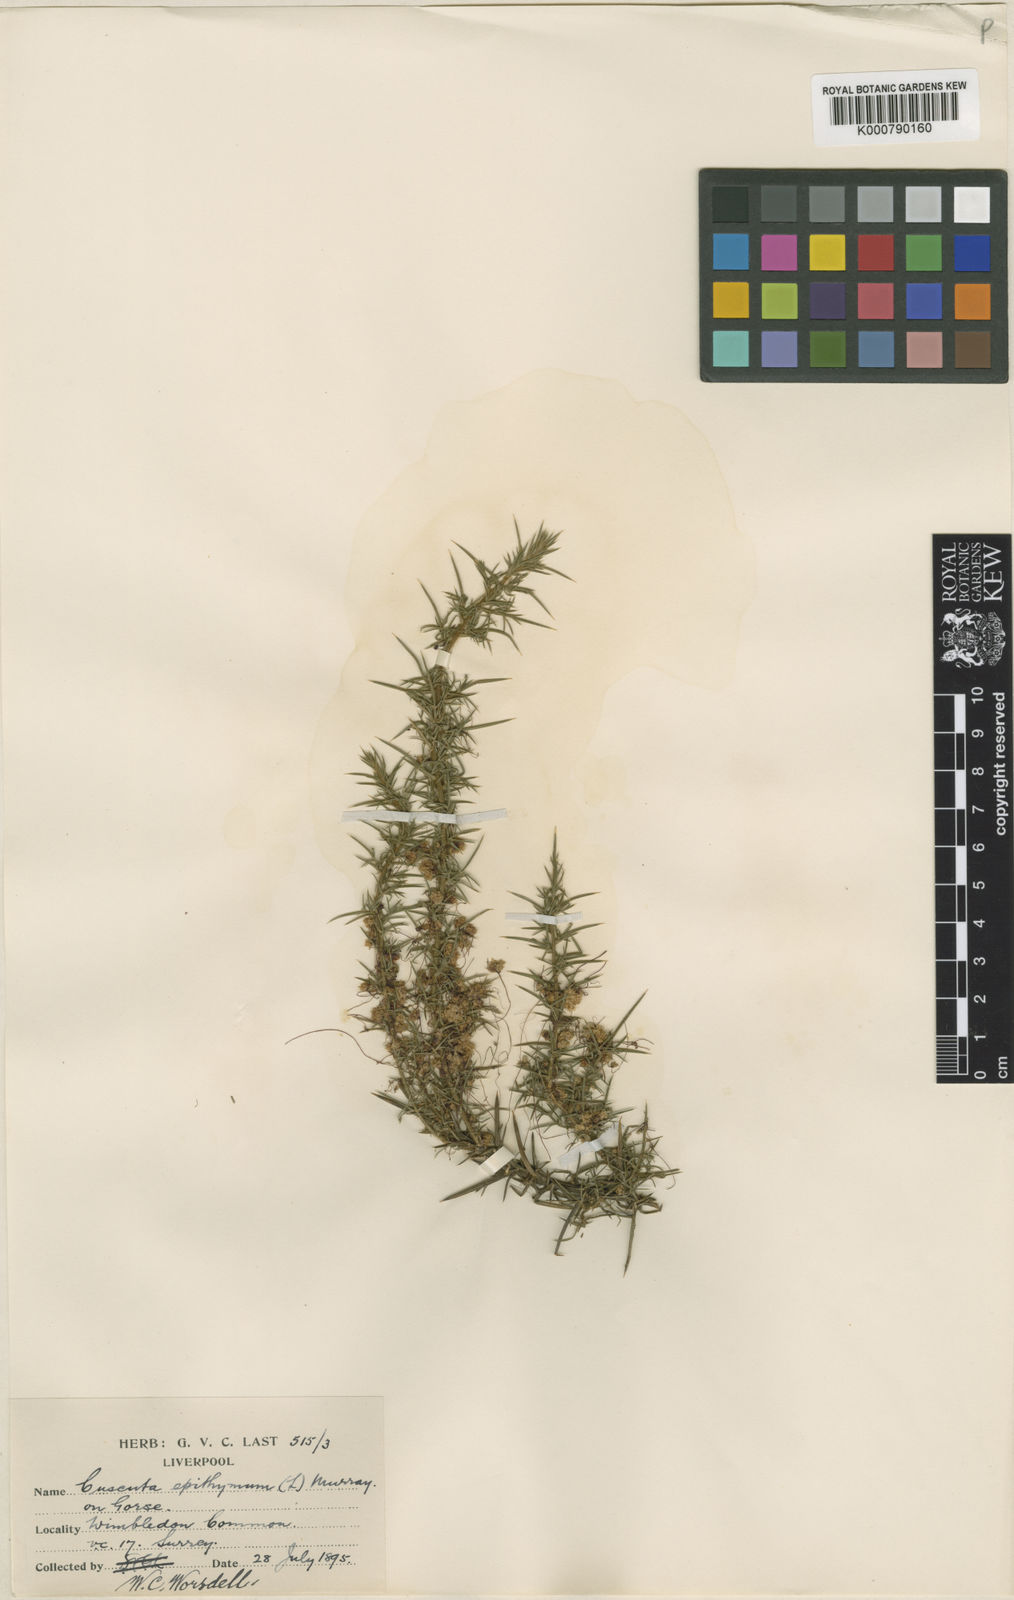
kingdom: Plantae
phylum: Tracheophyta
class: Magnoliopsida
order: Solanales
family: Convolvulaceae
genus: Cuscuta
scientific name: Cuscuta epithymum
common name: Clover dodder
